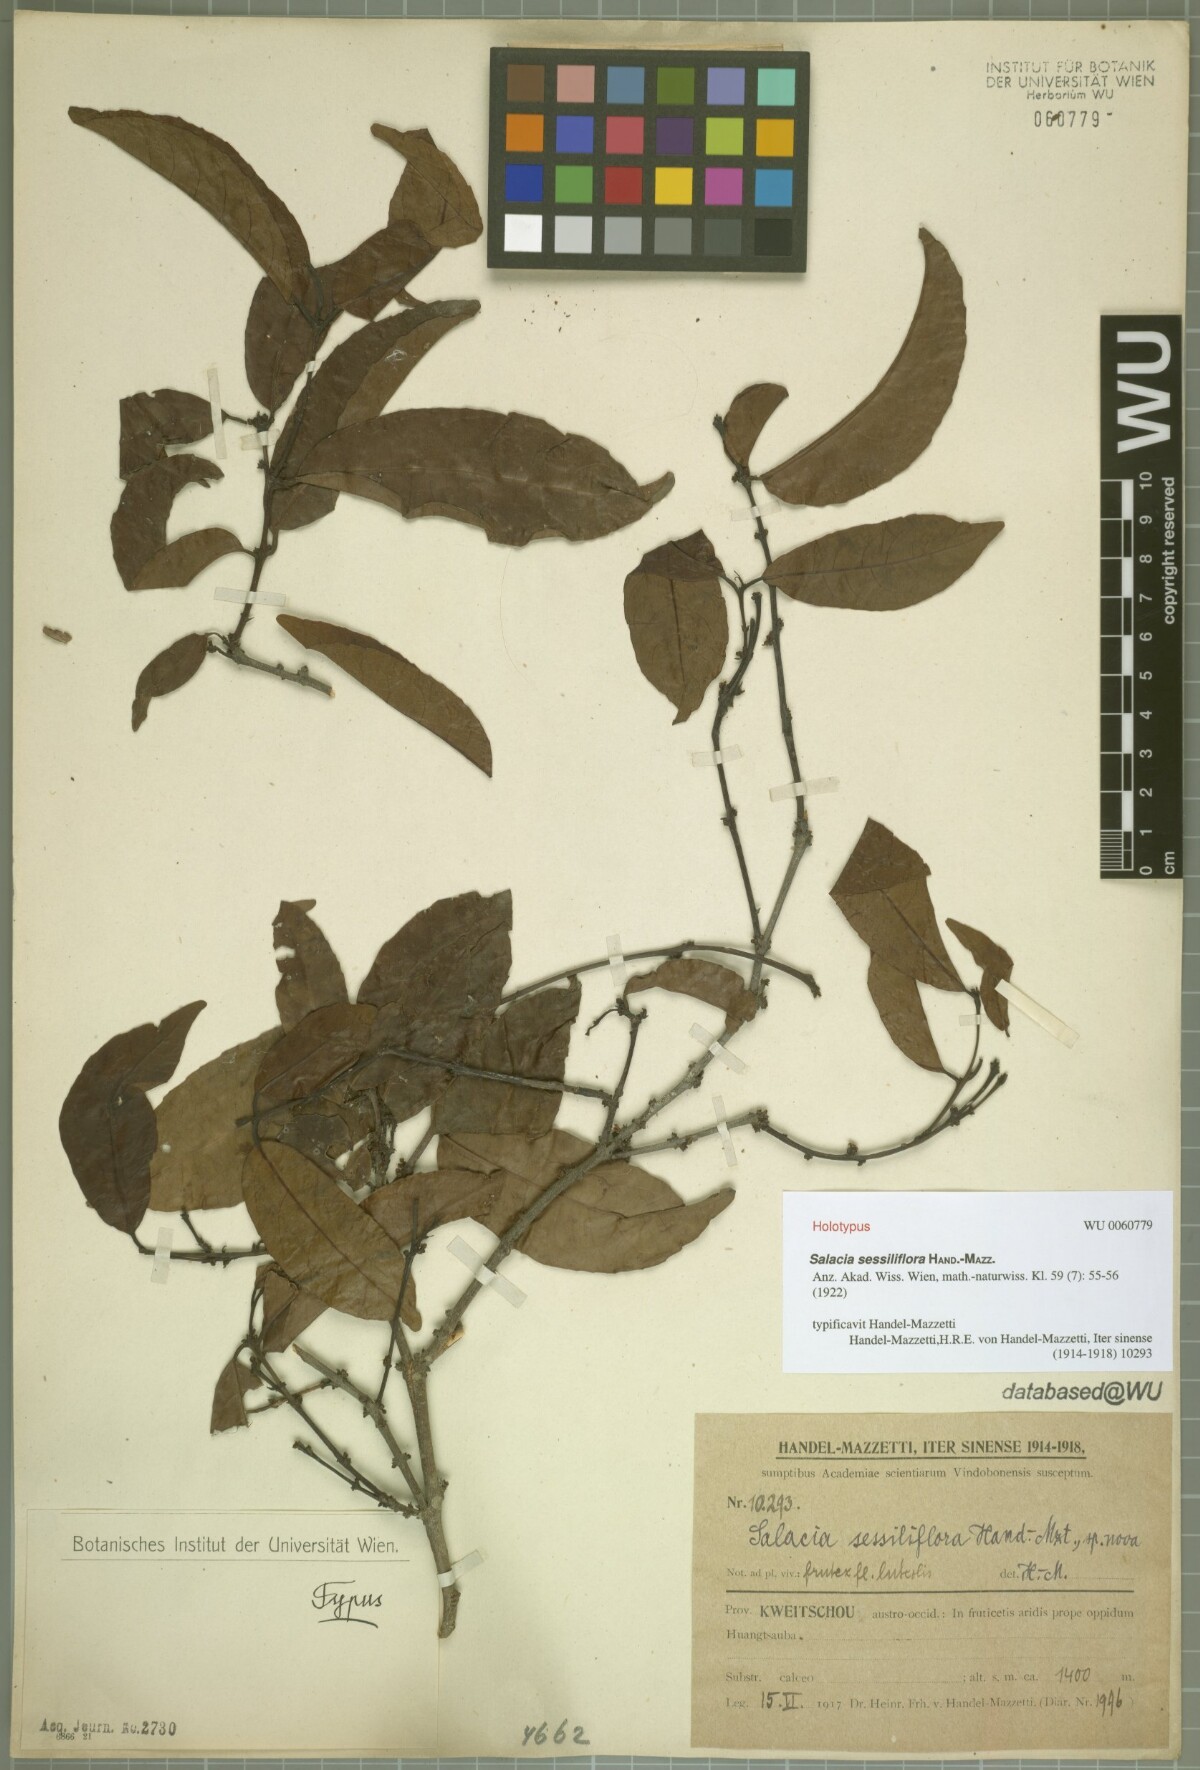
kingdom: Plantae
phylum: Tracheophyta
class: Magnoliopsida
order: Celastrales
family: Celastraceae
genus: Salacia
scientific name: Salacia sessiliflora
